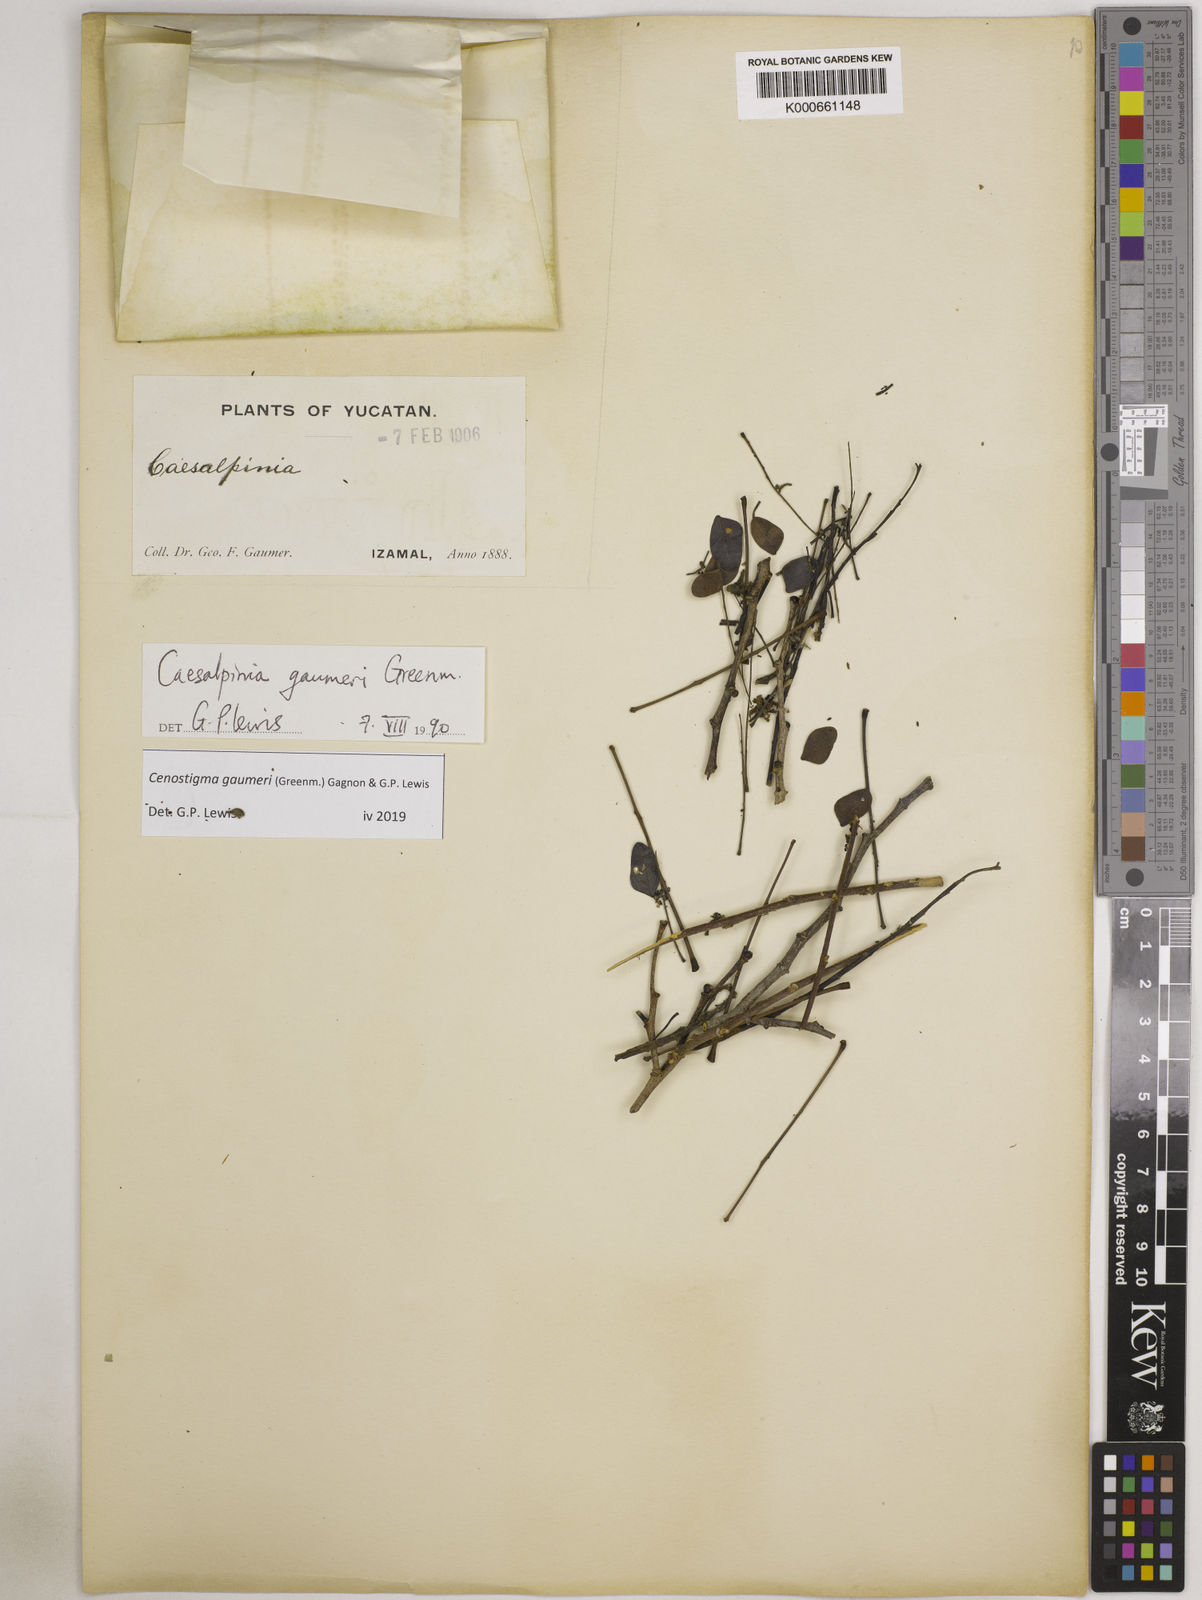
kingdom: Plantae
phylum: Tracheophyta
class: Magnoliopsida
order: Fabales
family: Fabaceae
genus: Cenostigma
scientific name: Cenostigma gaumeri
